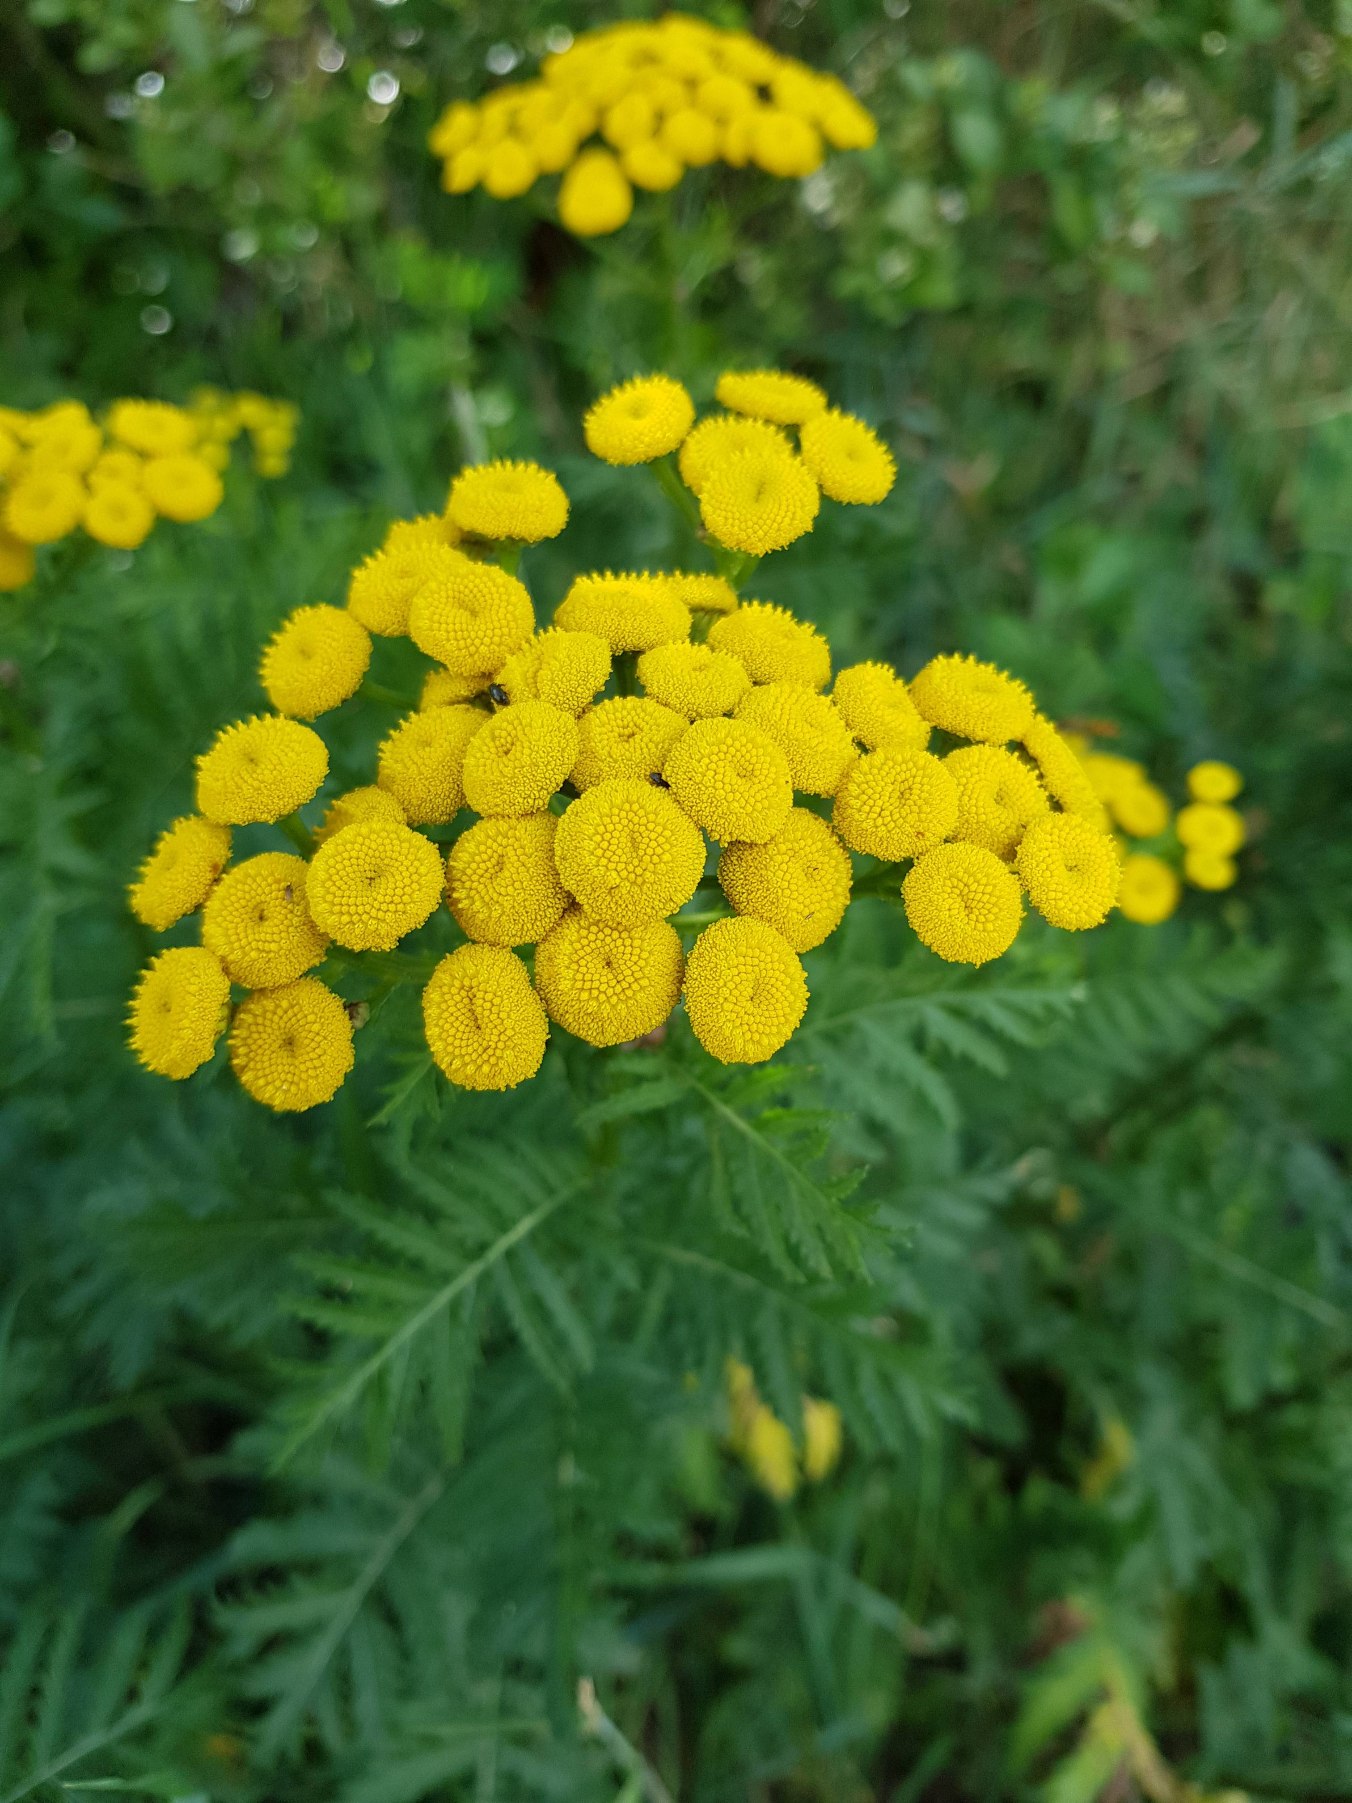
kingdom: Plantae
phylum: Tracheophyta
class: Magnoliopsida
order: Asterales
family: Asteraceae
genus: Tanacetum
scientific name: Tanacetum vulgare
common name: Rejnfan
